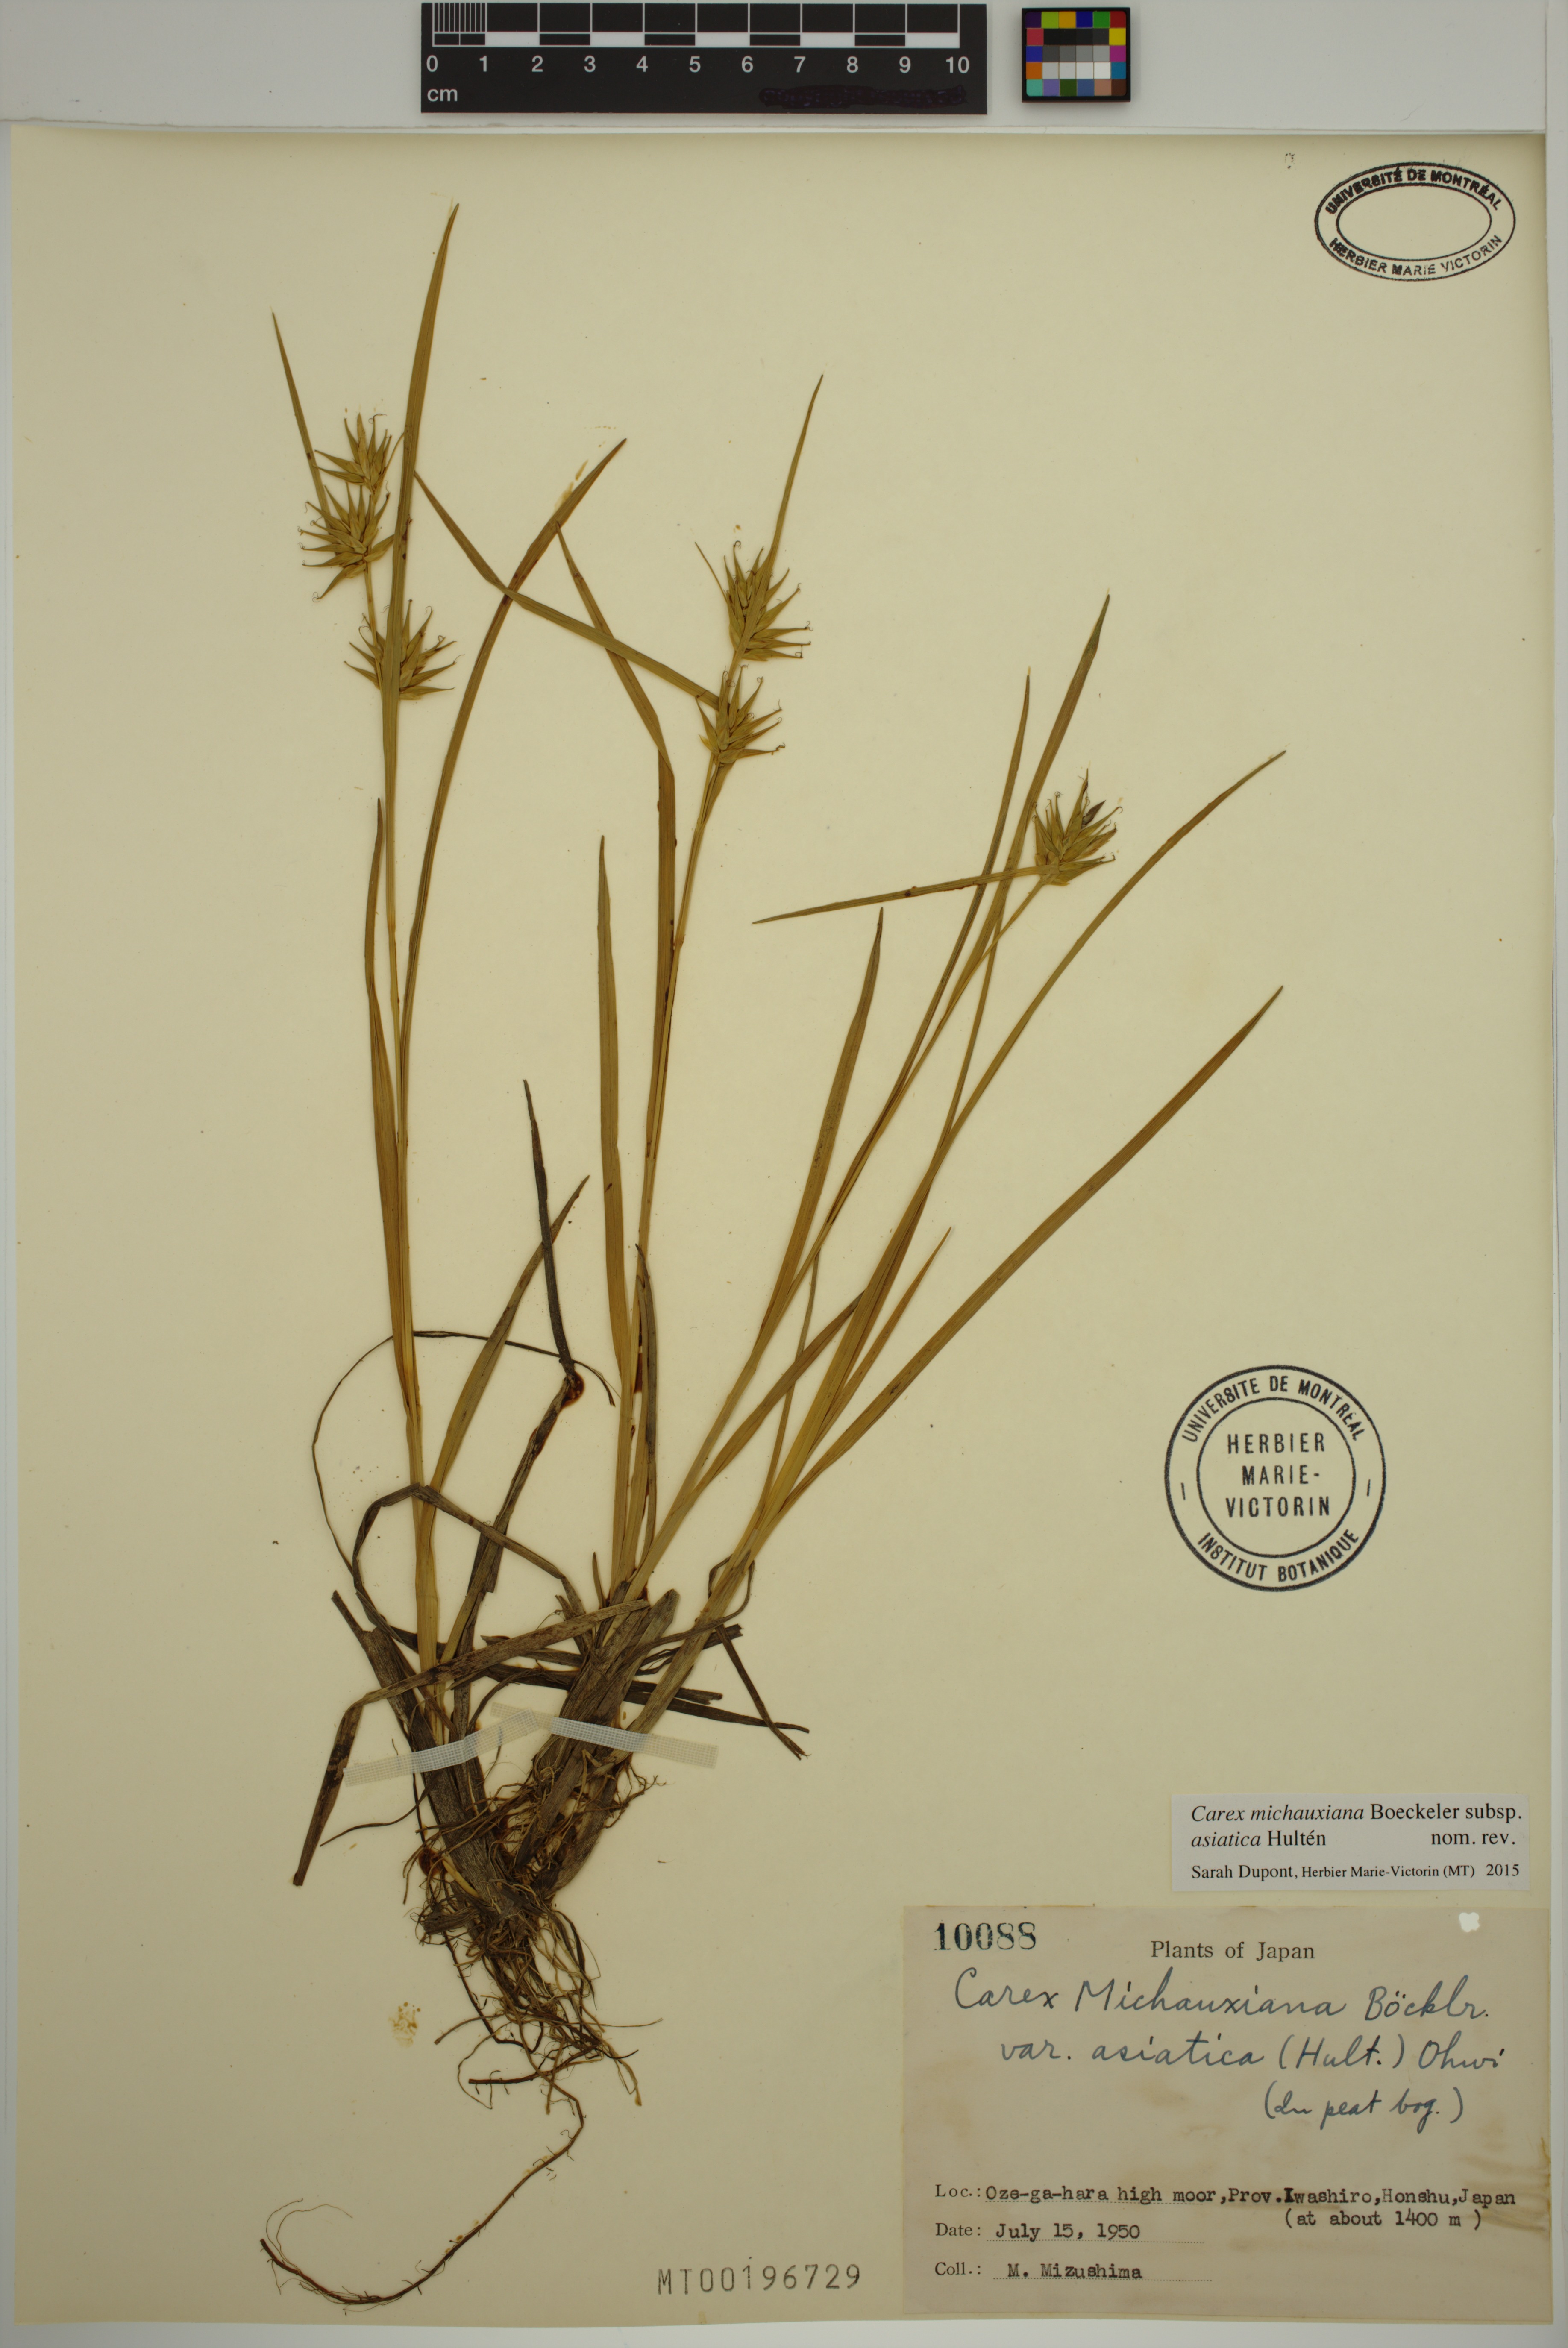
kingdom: Plantae
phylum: Tracheophyta
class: Liliopsida
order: Poales
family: Cyperaceae
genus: Carex
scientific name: Carex michauxiana
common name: Michaux's sedge
